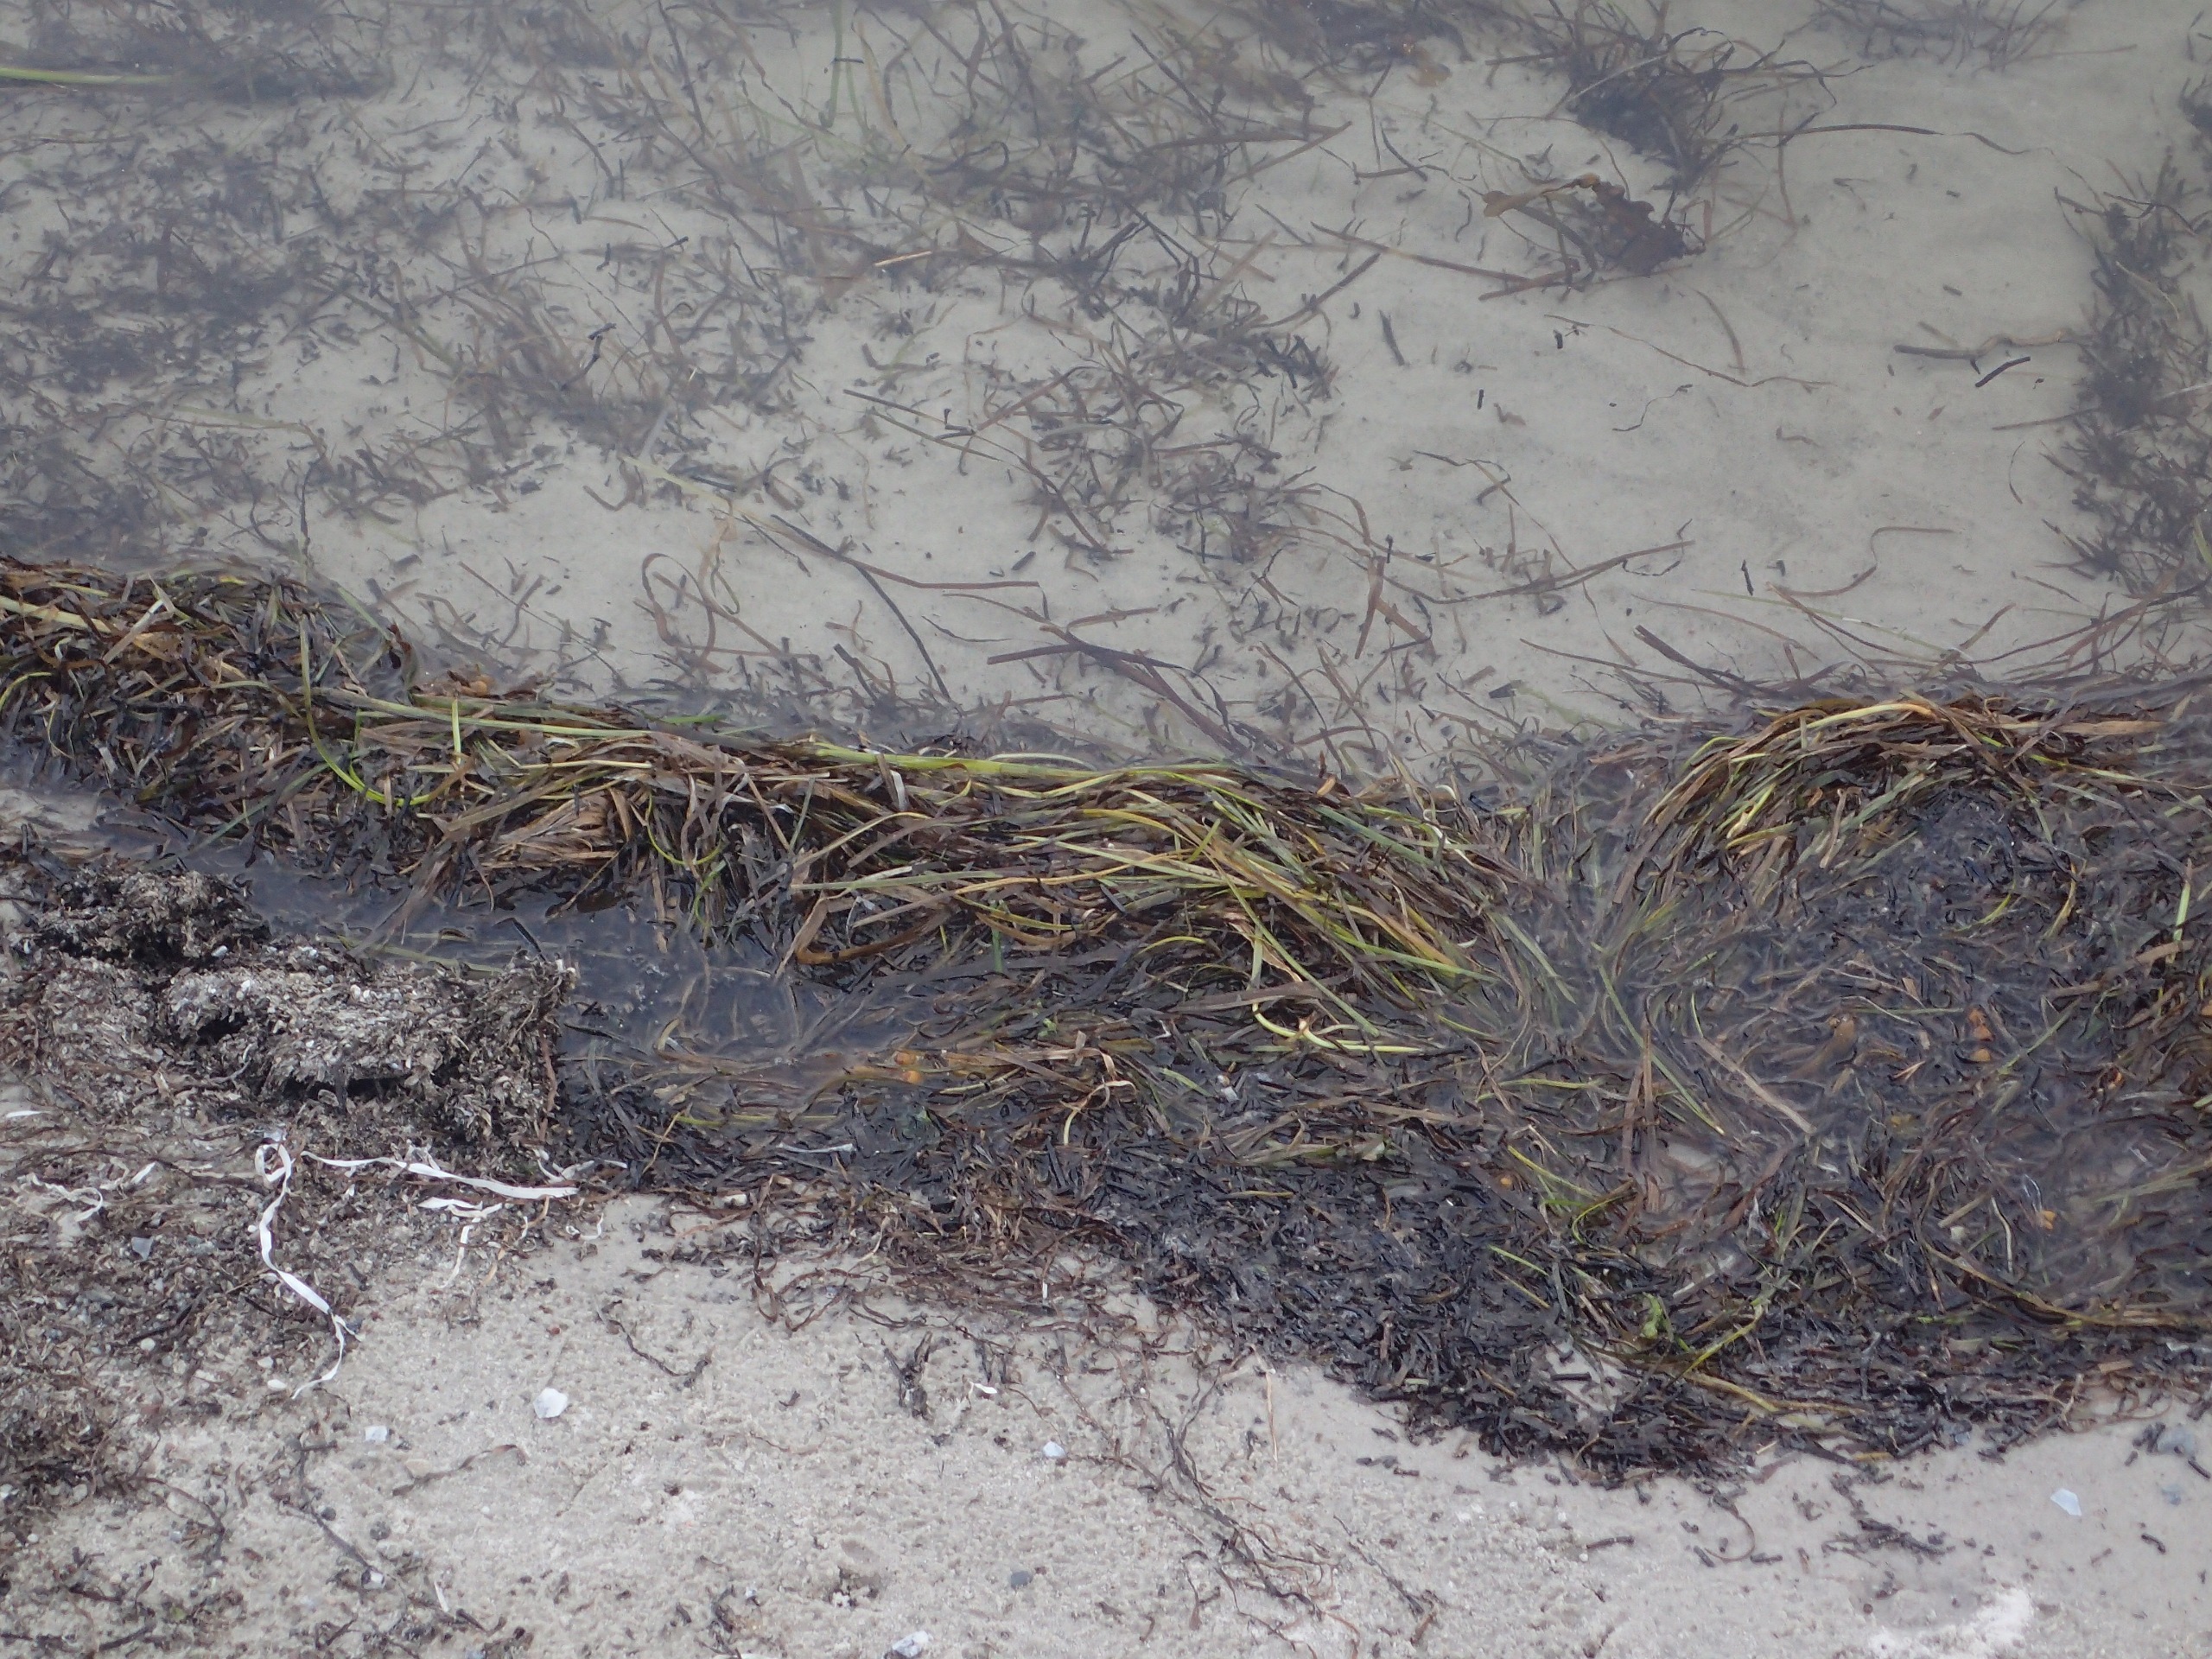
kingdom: Plantae
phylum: Tracheophyta
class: Liliopsida
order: Alismatales
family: Zosteraceae
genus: Zostera
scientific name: Zostera marina
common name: Almindelig bændeltang
